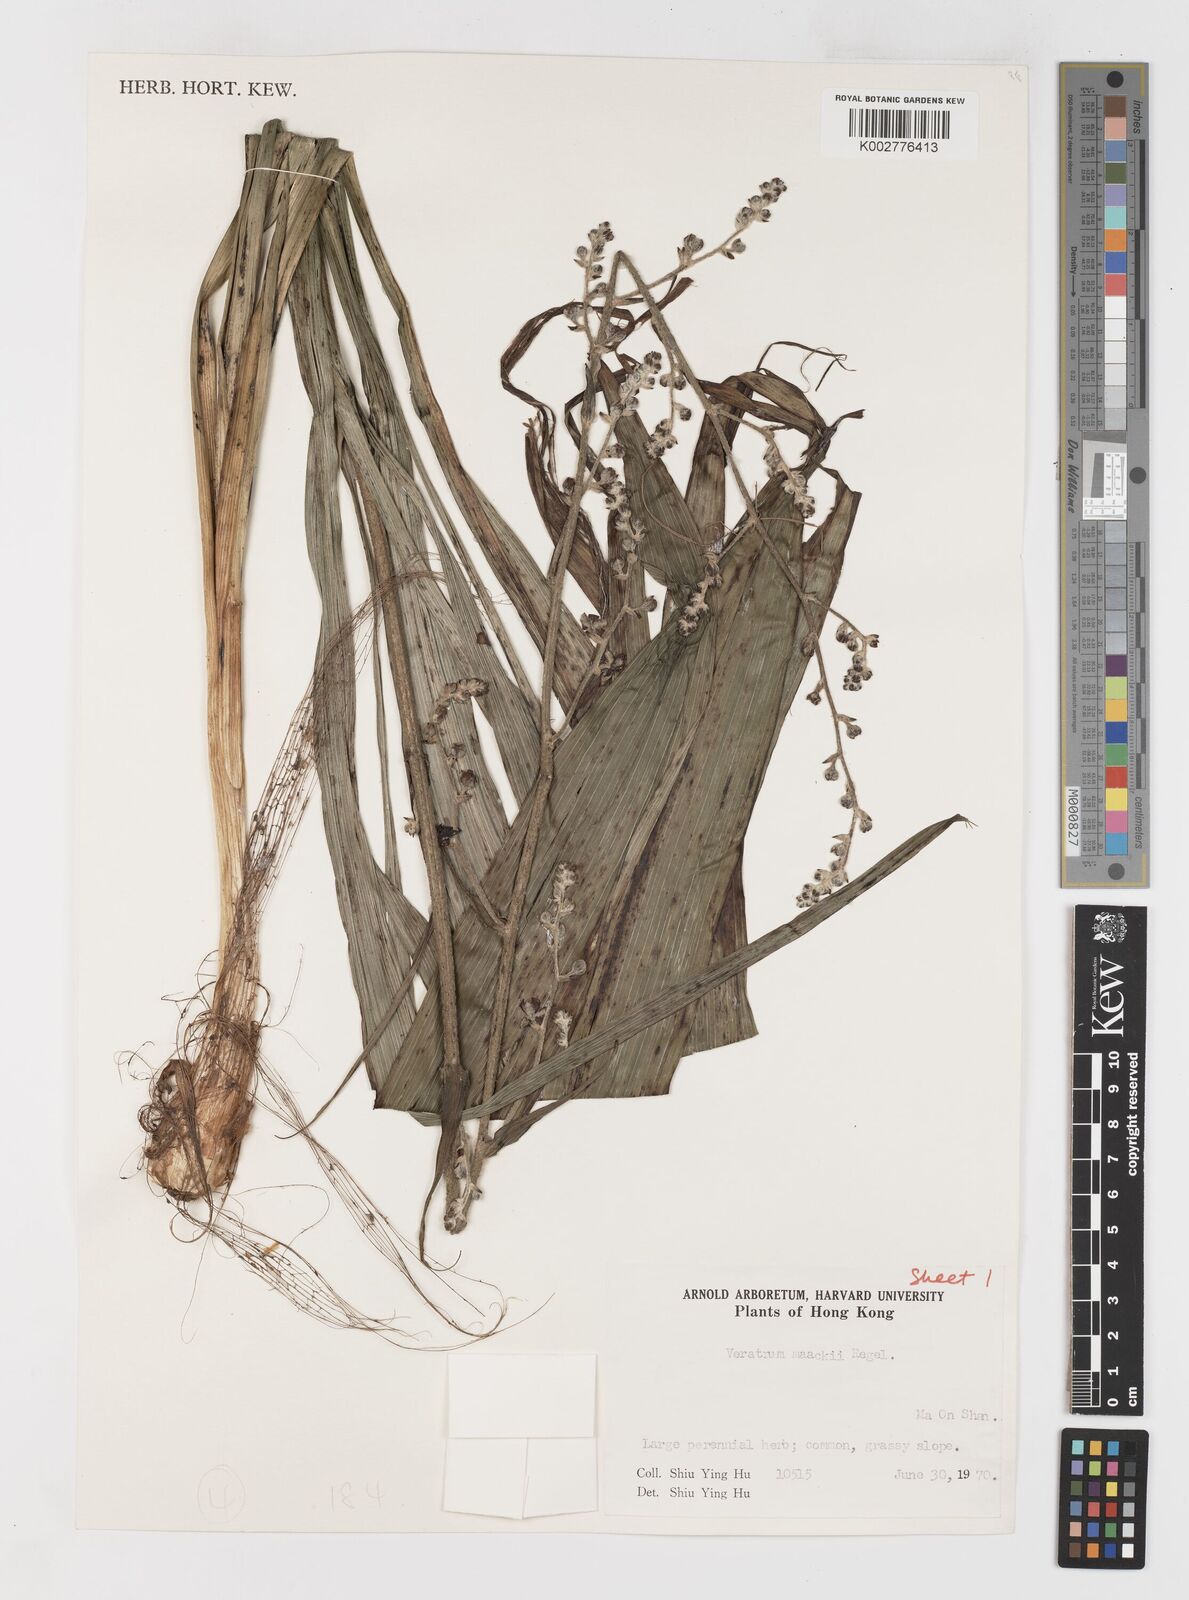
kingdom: Plantae
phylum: Tracheophyta
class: Liliopsida
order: Liliales
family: Melanthiaceae
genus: Veratrum
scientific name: Veratrum maackii
